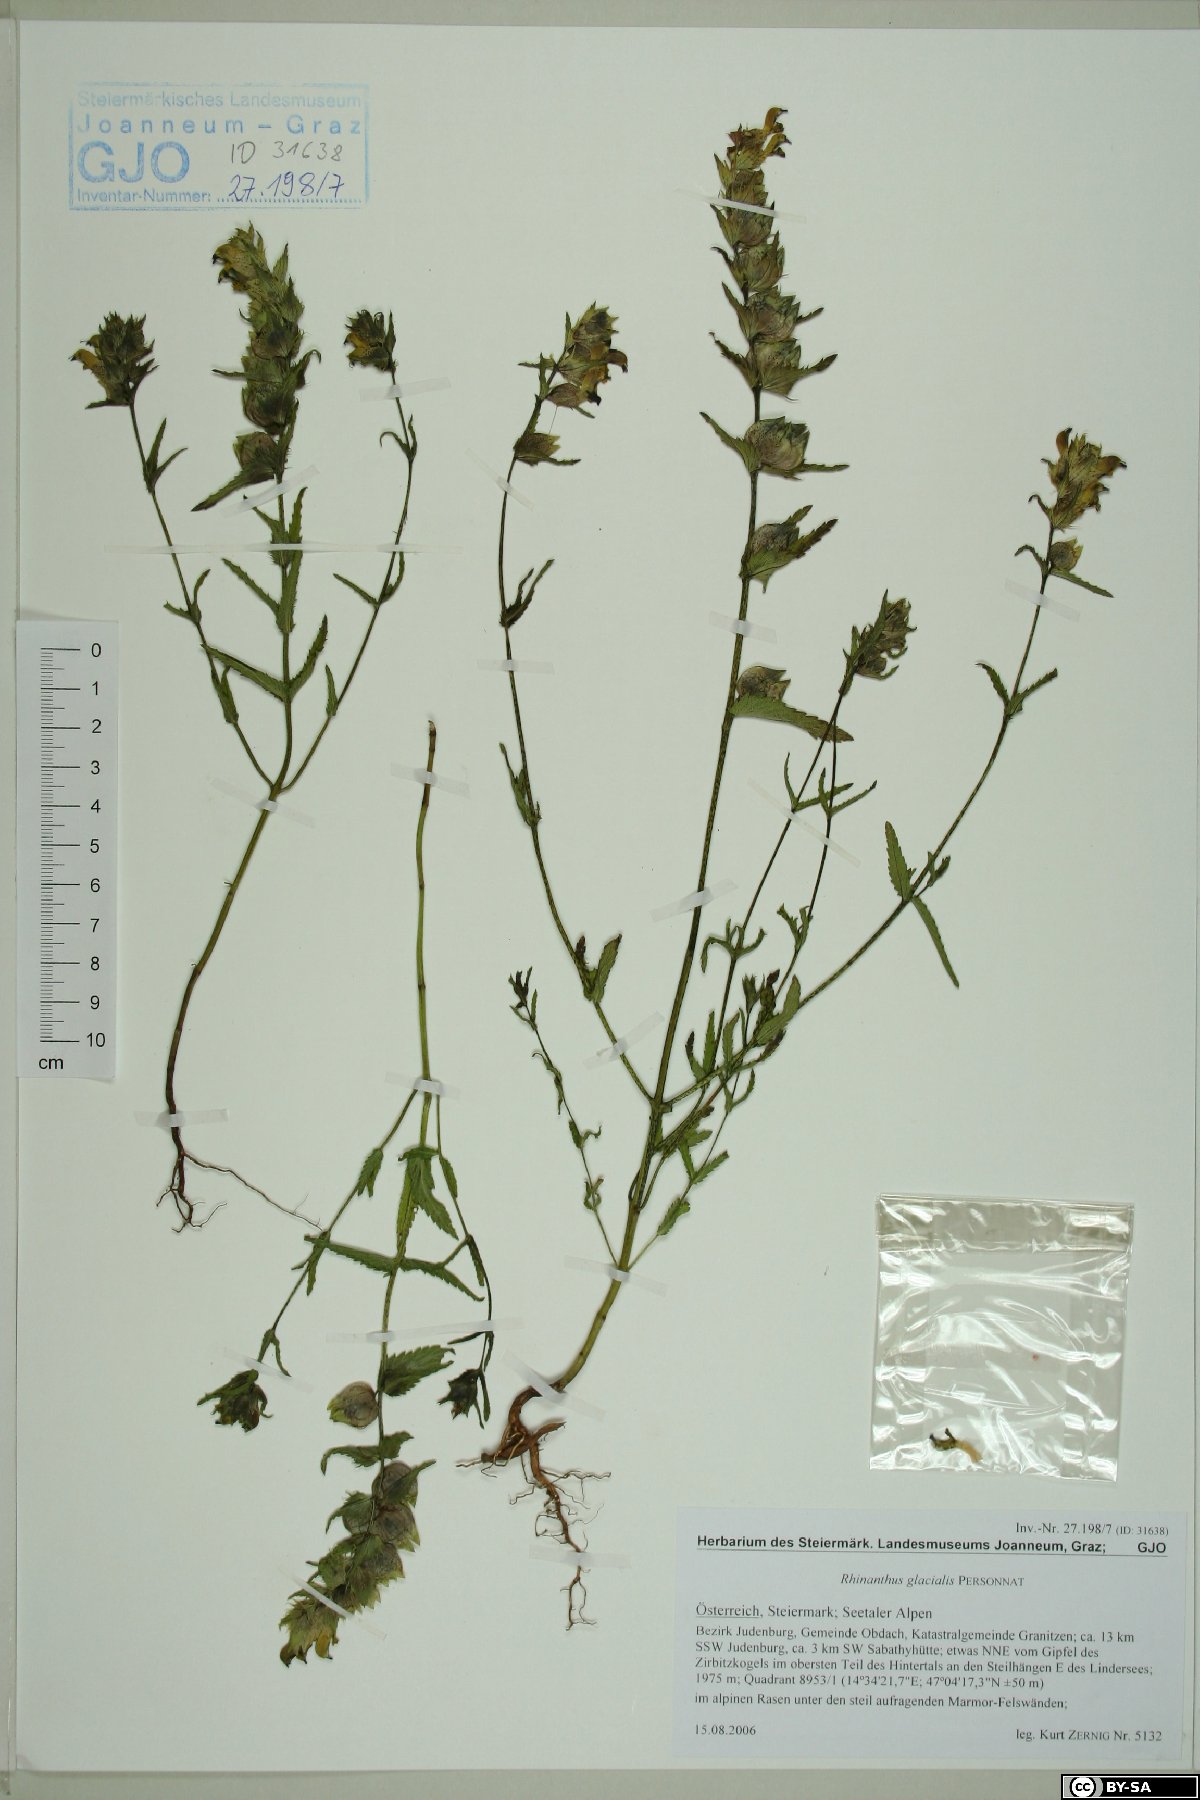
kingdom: Plantae
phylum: Tracheophyta
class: Magnoliopsida
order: Lamiales
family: Orobanchaceae
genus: Rhinanthus
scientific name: Rhinanthus glacialis
